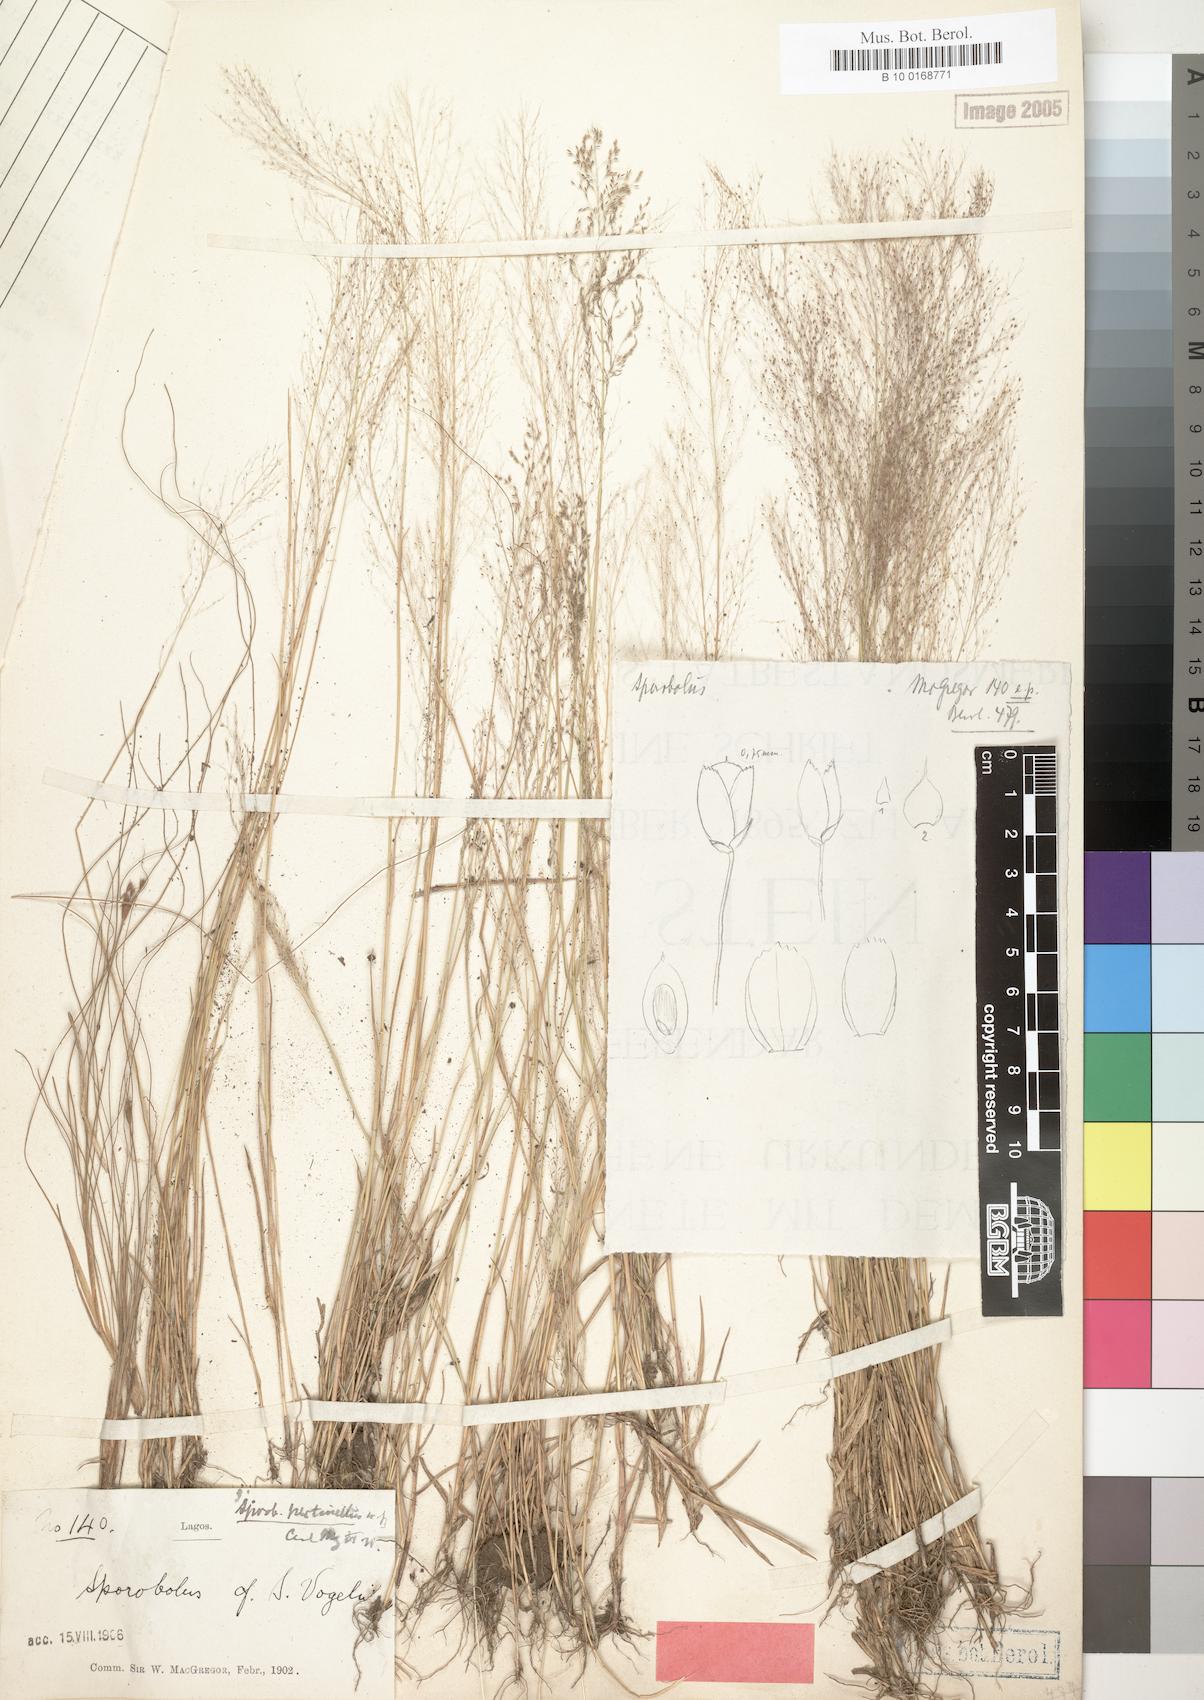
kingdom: Plantae
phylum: Tracheophyta
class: Liliopsida
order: Poales
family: Poaceae
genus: Sporobolus
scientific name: Sporobolus pectinellus
